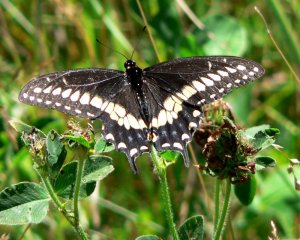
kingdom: Animalia
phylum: Arthropoda
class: Insecta
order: Lepidoptera
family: Papilionidae
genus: Papilio
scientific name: Papilio polyxenes
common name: Black Swallowtail
